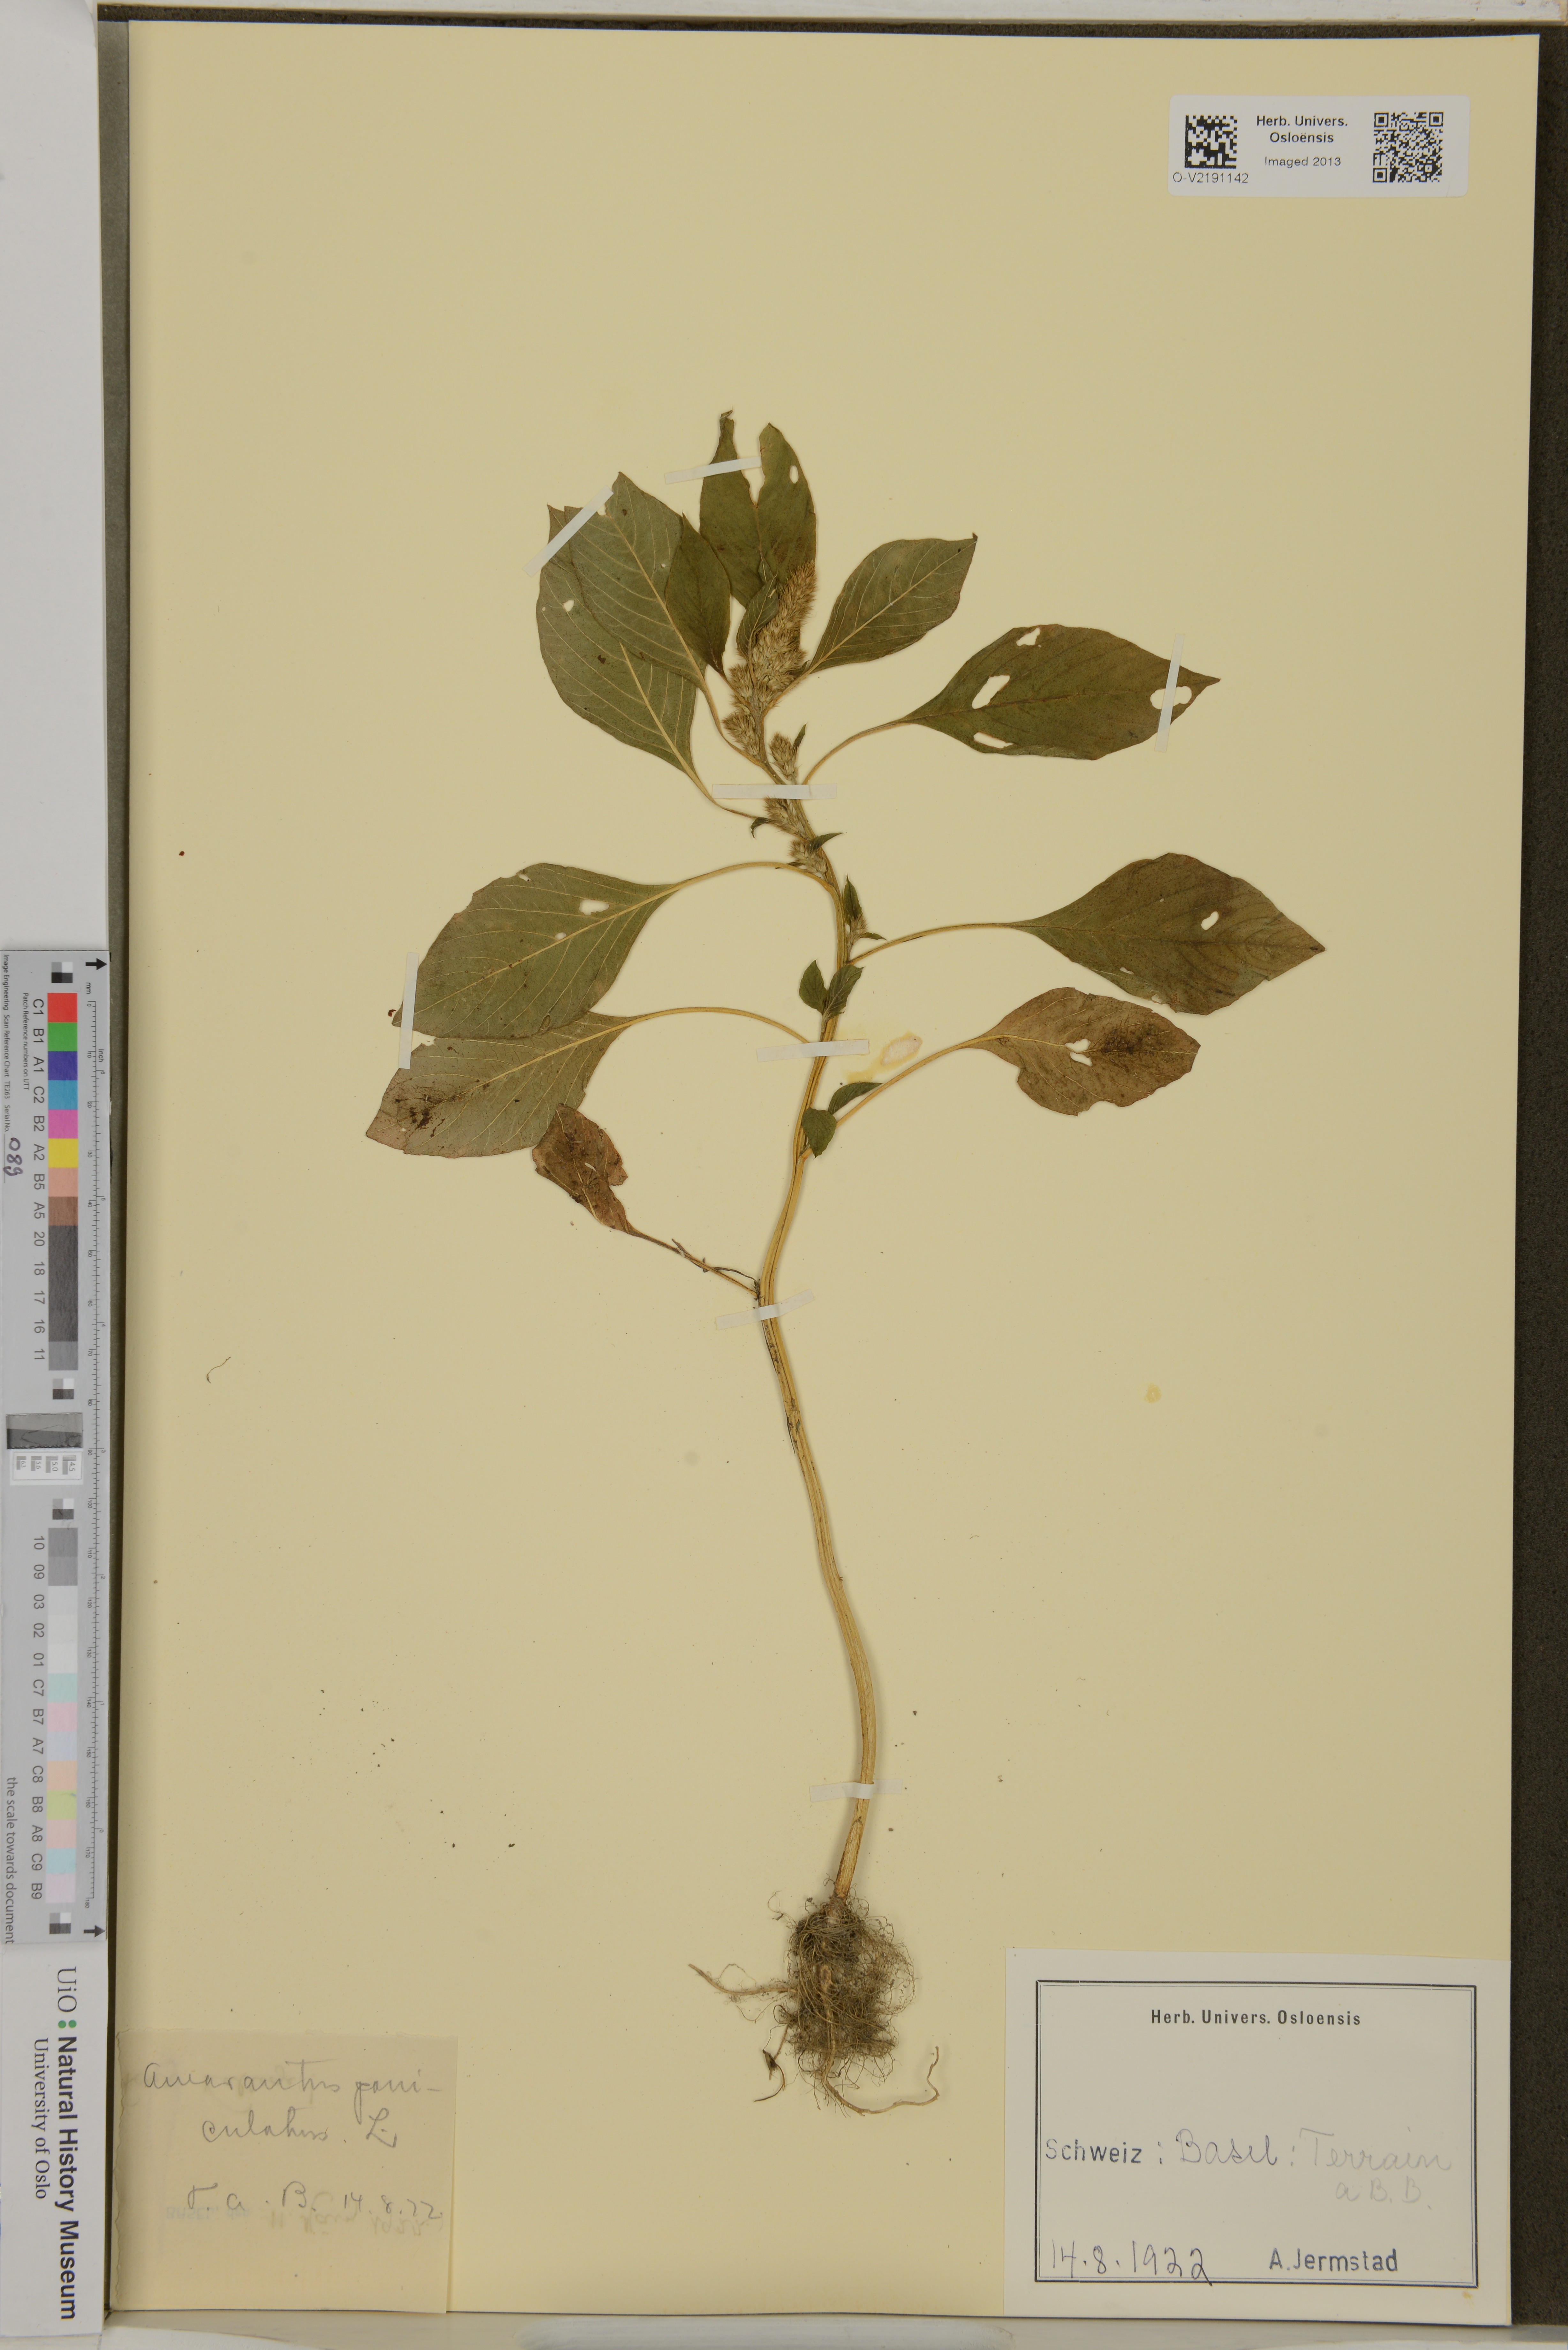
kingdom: Plantae
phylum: Tracheophyta
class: Magnoliopsida
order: Caryophyllales
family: Amaranthaceae
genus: Amaranthus
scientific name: Amaranthus cruentus
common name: Purple amaranth
